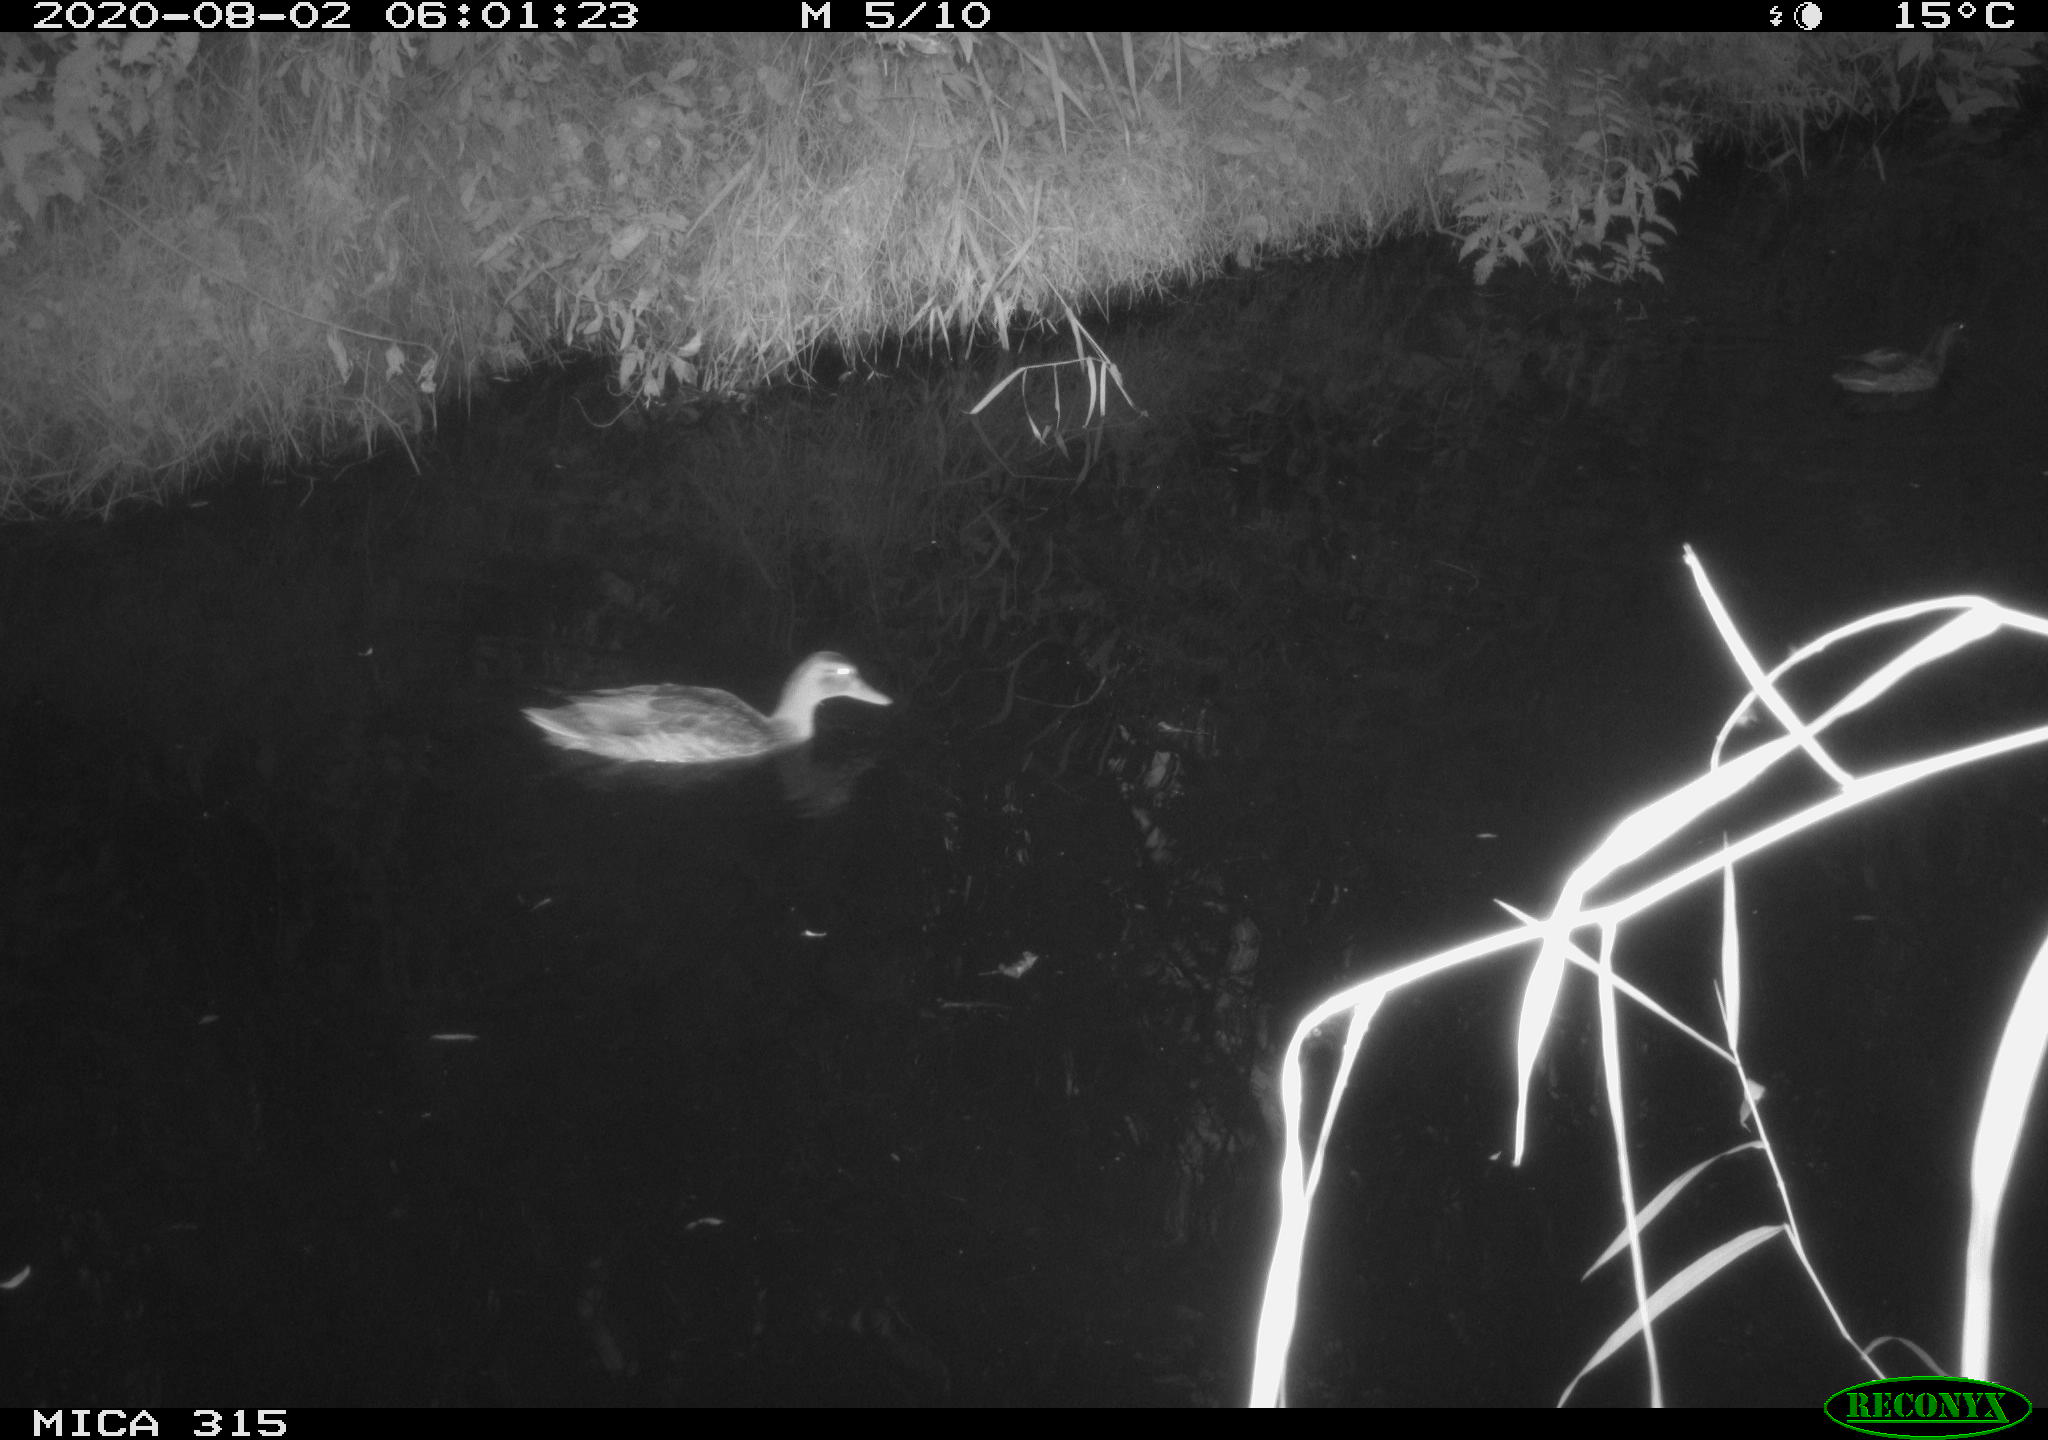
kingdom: Animalia
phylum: Chordata
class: Aves
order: Anseriformes
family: Anatidae
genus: Anas
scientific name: Anas platyrhynchos
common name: Mallard
